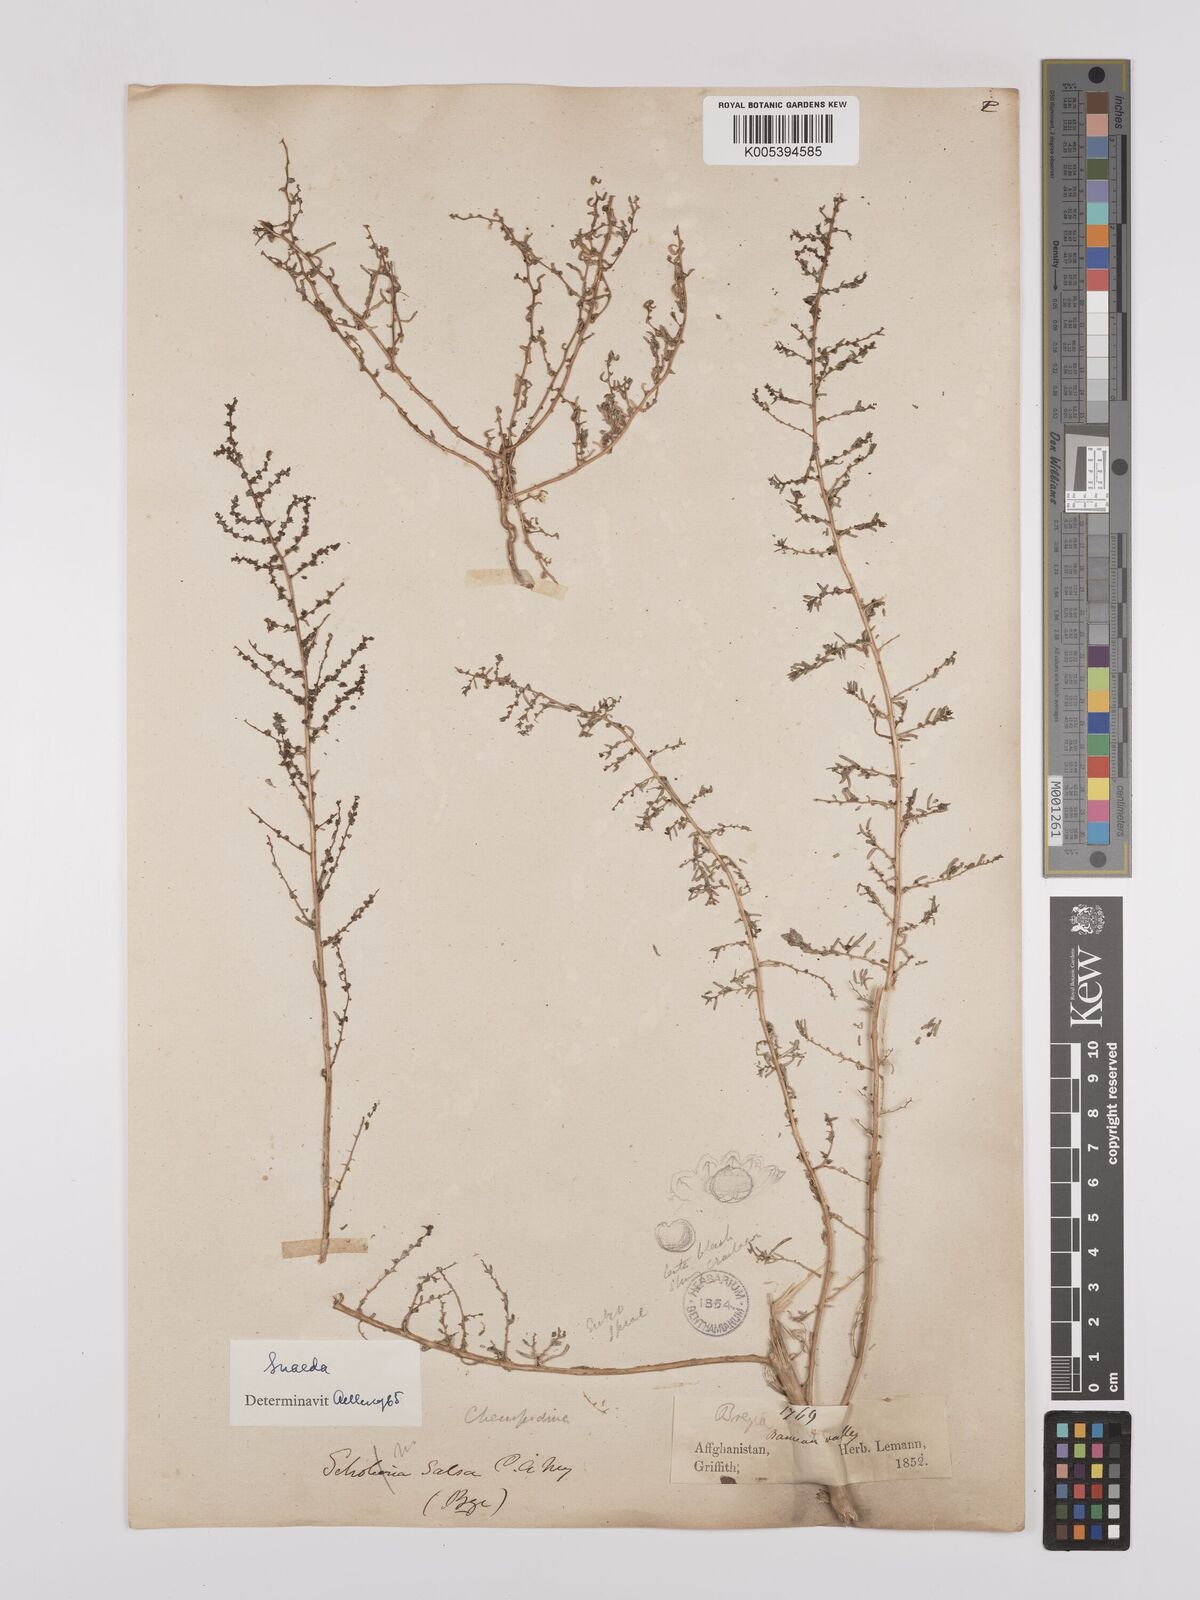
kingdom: Plantae
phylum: Tracheophyta
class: Magnoliopsida
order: Caryophyllales
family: Amaranthaceae
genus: Suaeda
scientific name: Suaeda
